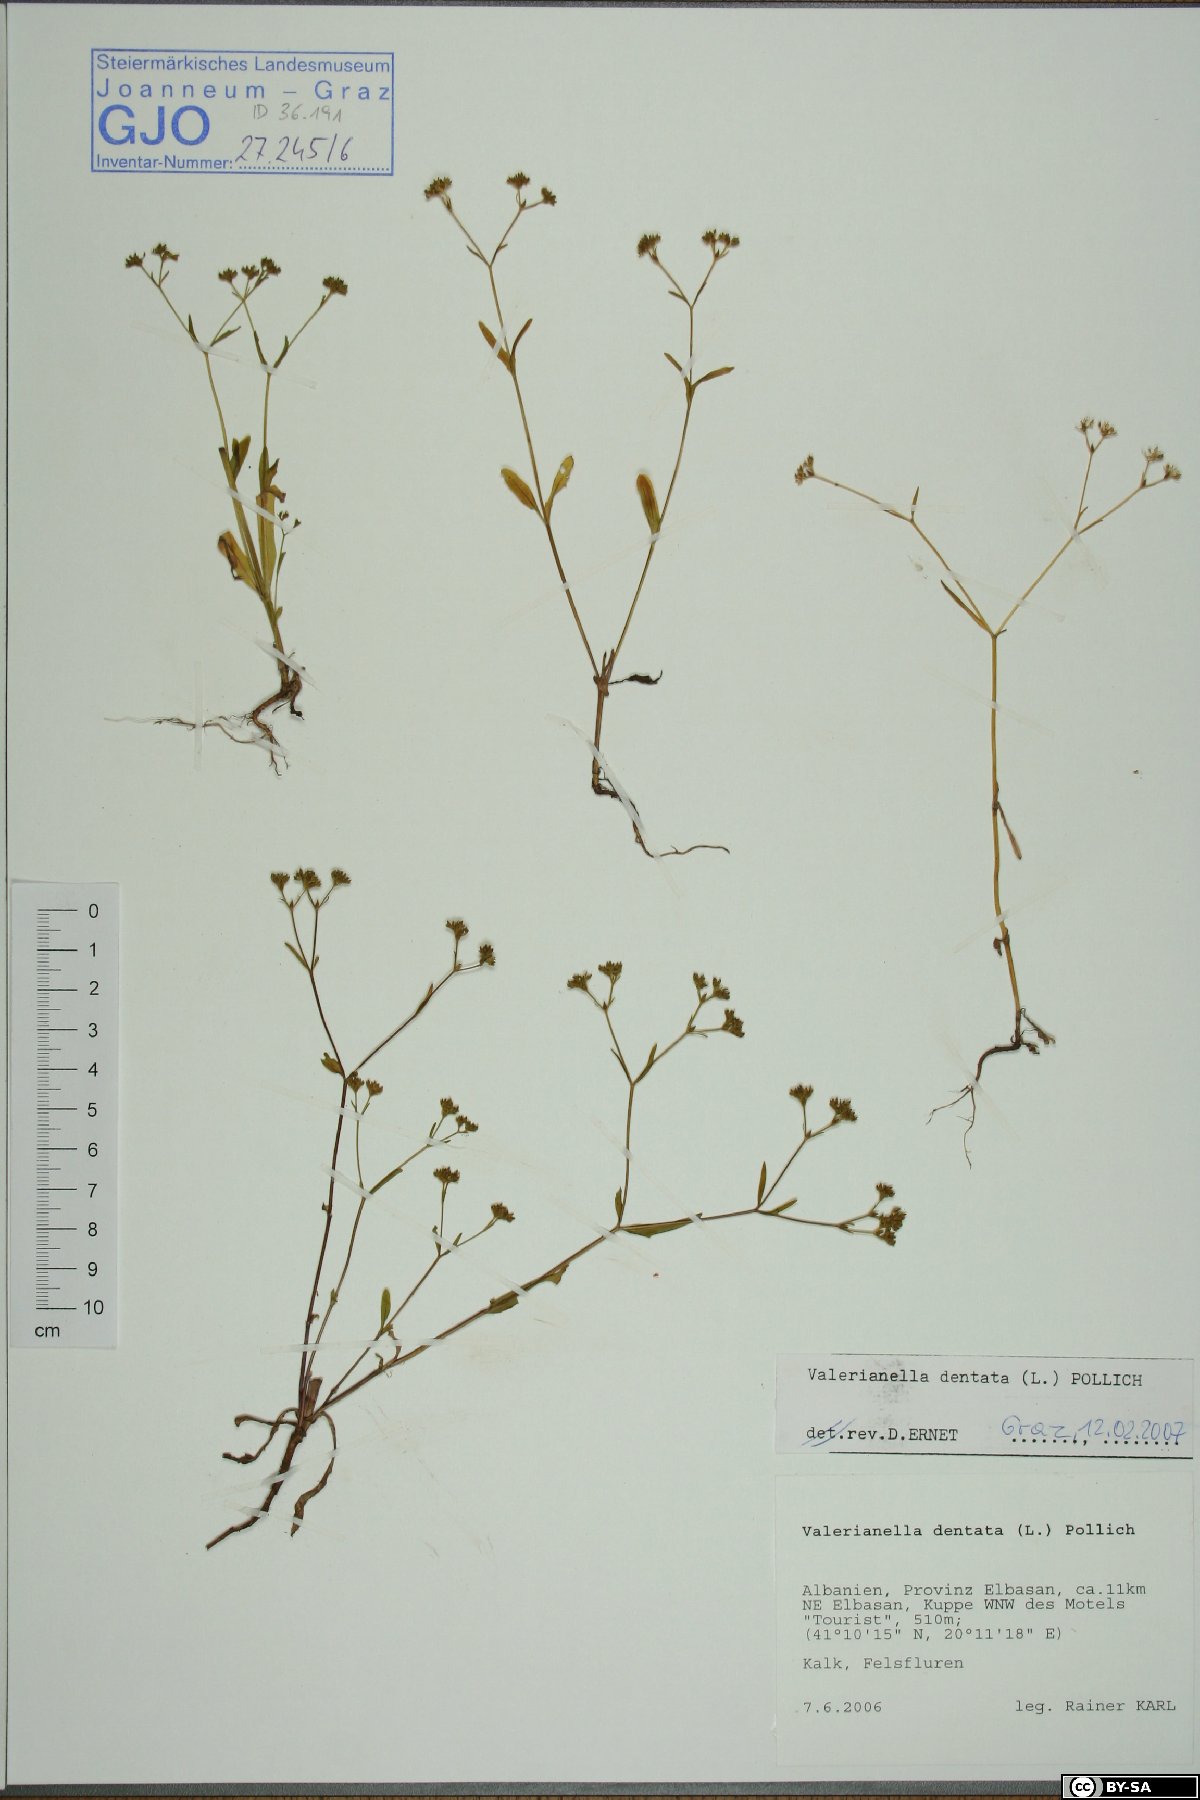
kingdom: Plantae
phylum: Tracheophyta
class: Magnoliopsida
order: Dipsacales
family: Caprifoliaceae
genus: Valerianella
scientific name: Valerianella dentata
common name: Narrow-fruited cornsalad
